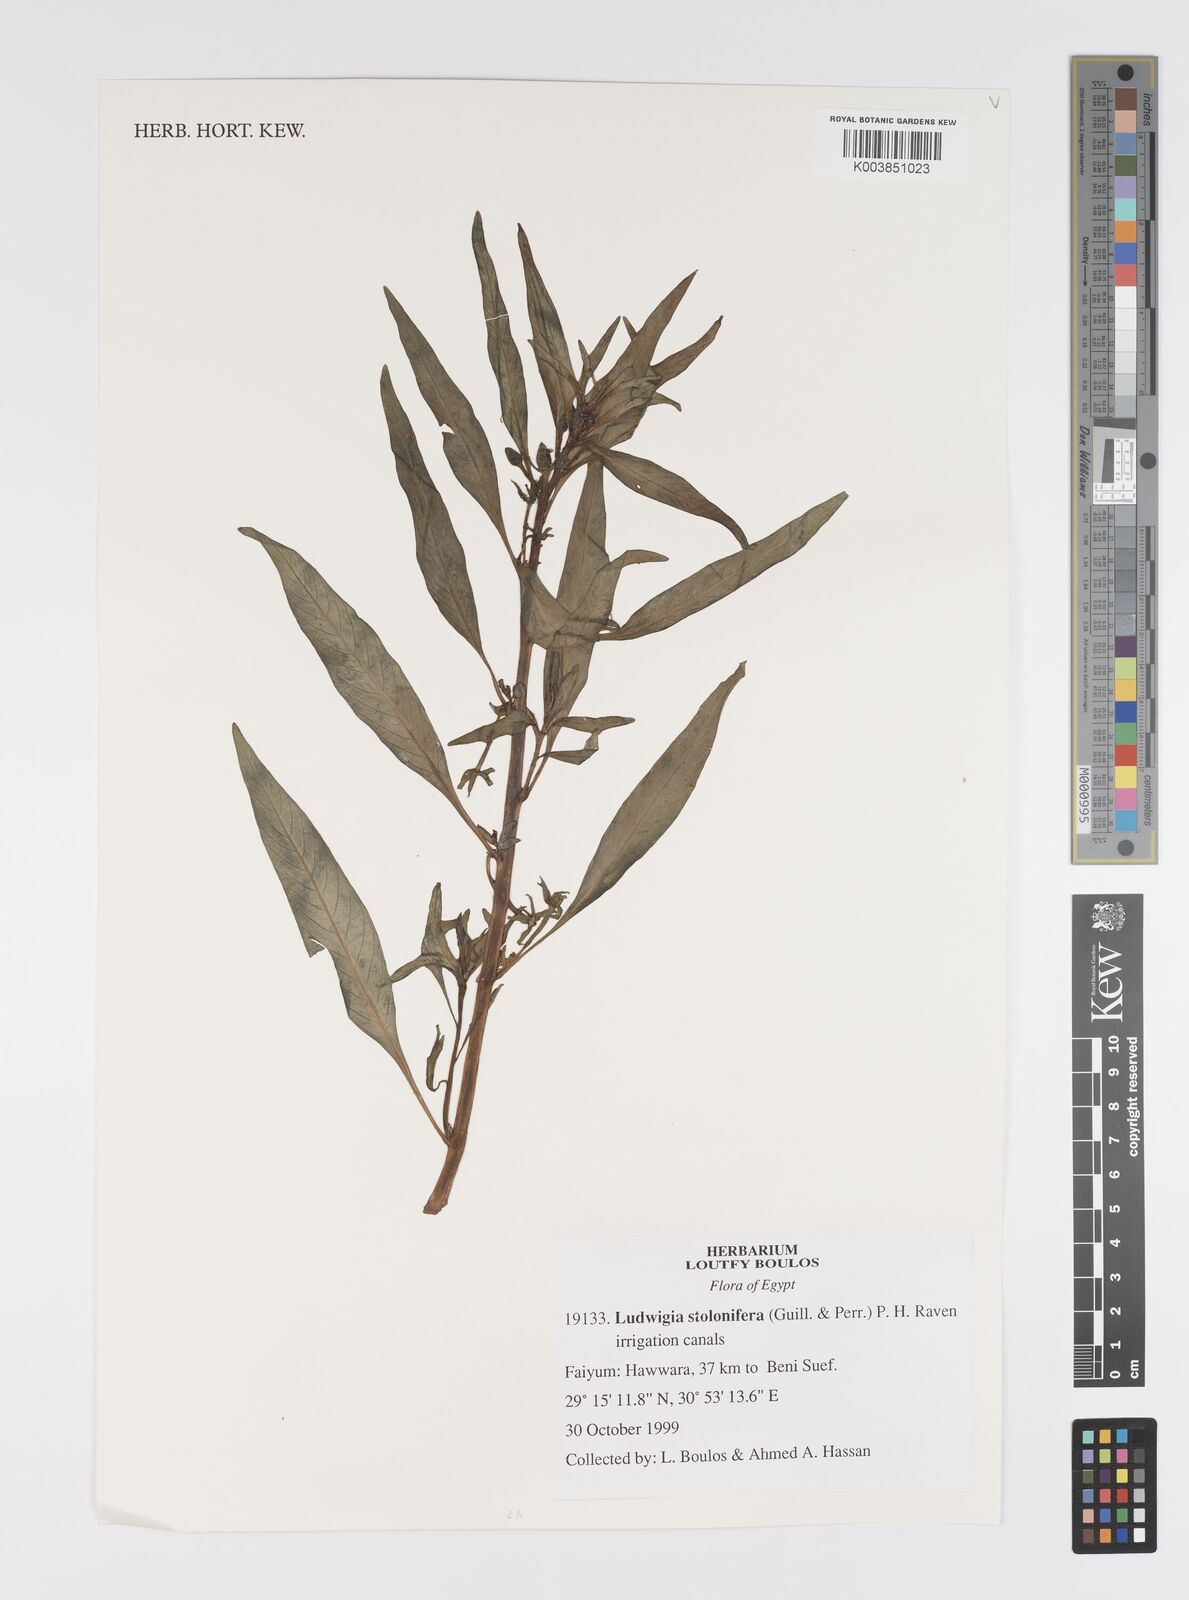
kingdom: Plantae
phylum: Tracheophyta
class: Magnoliopsida
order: Myrtales
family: Onagraceae
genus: Ludwigia
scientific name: Ludwigia adscendens
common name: Creeping water primrose
